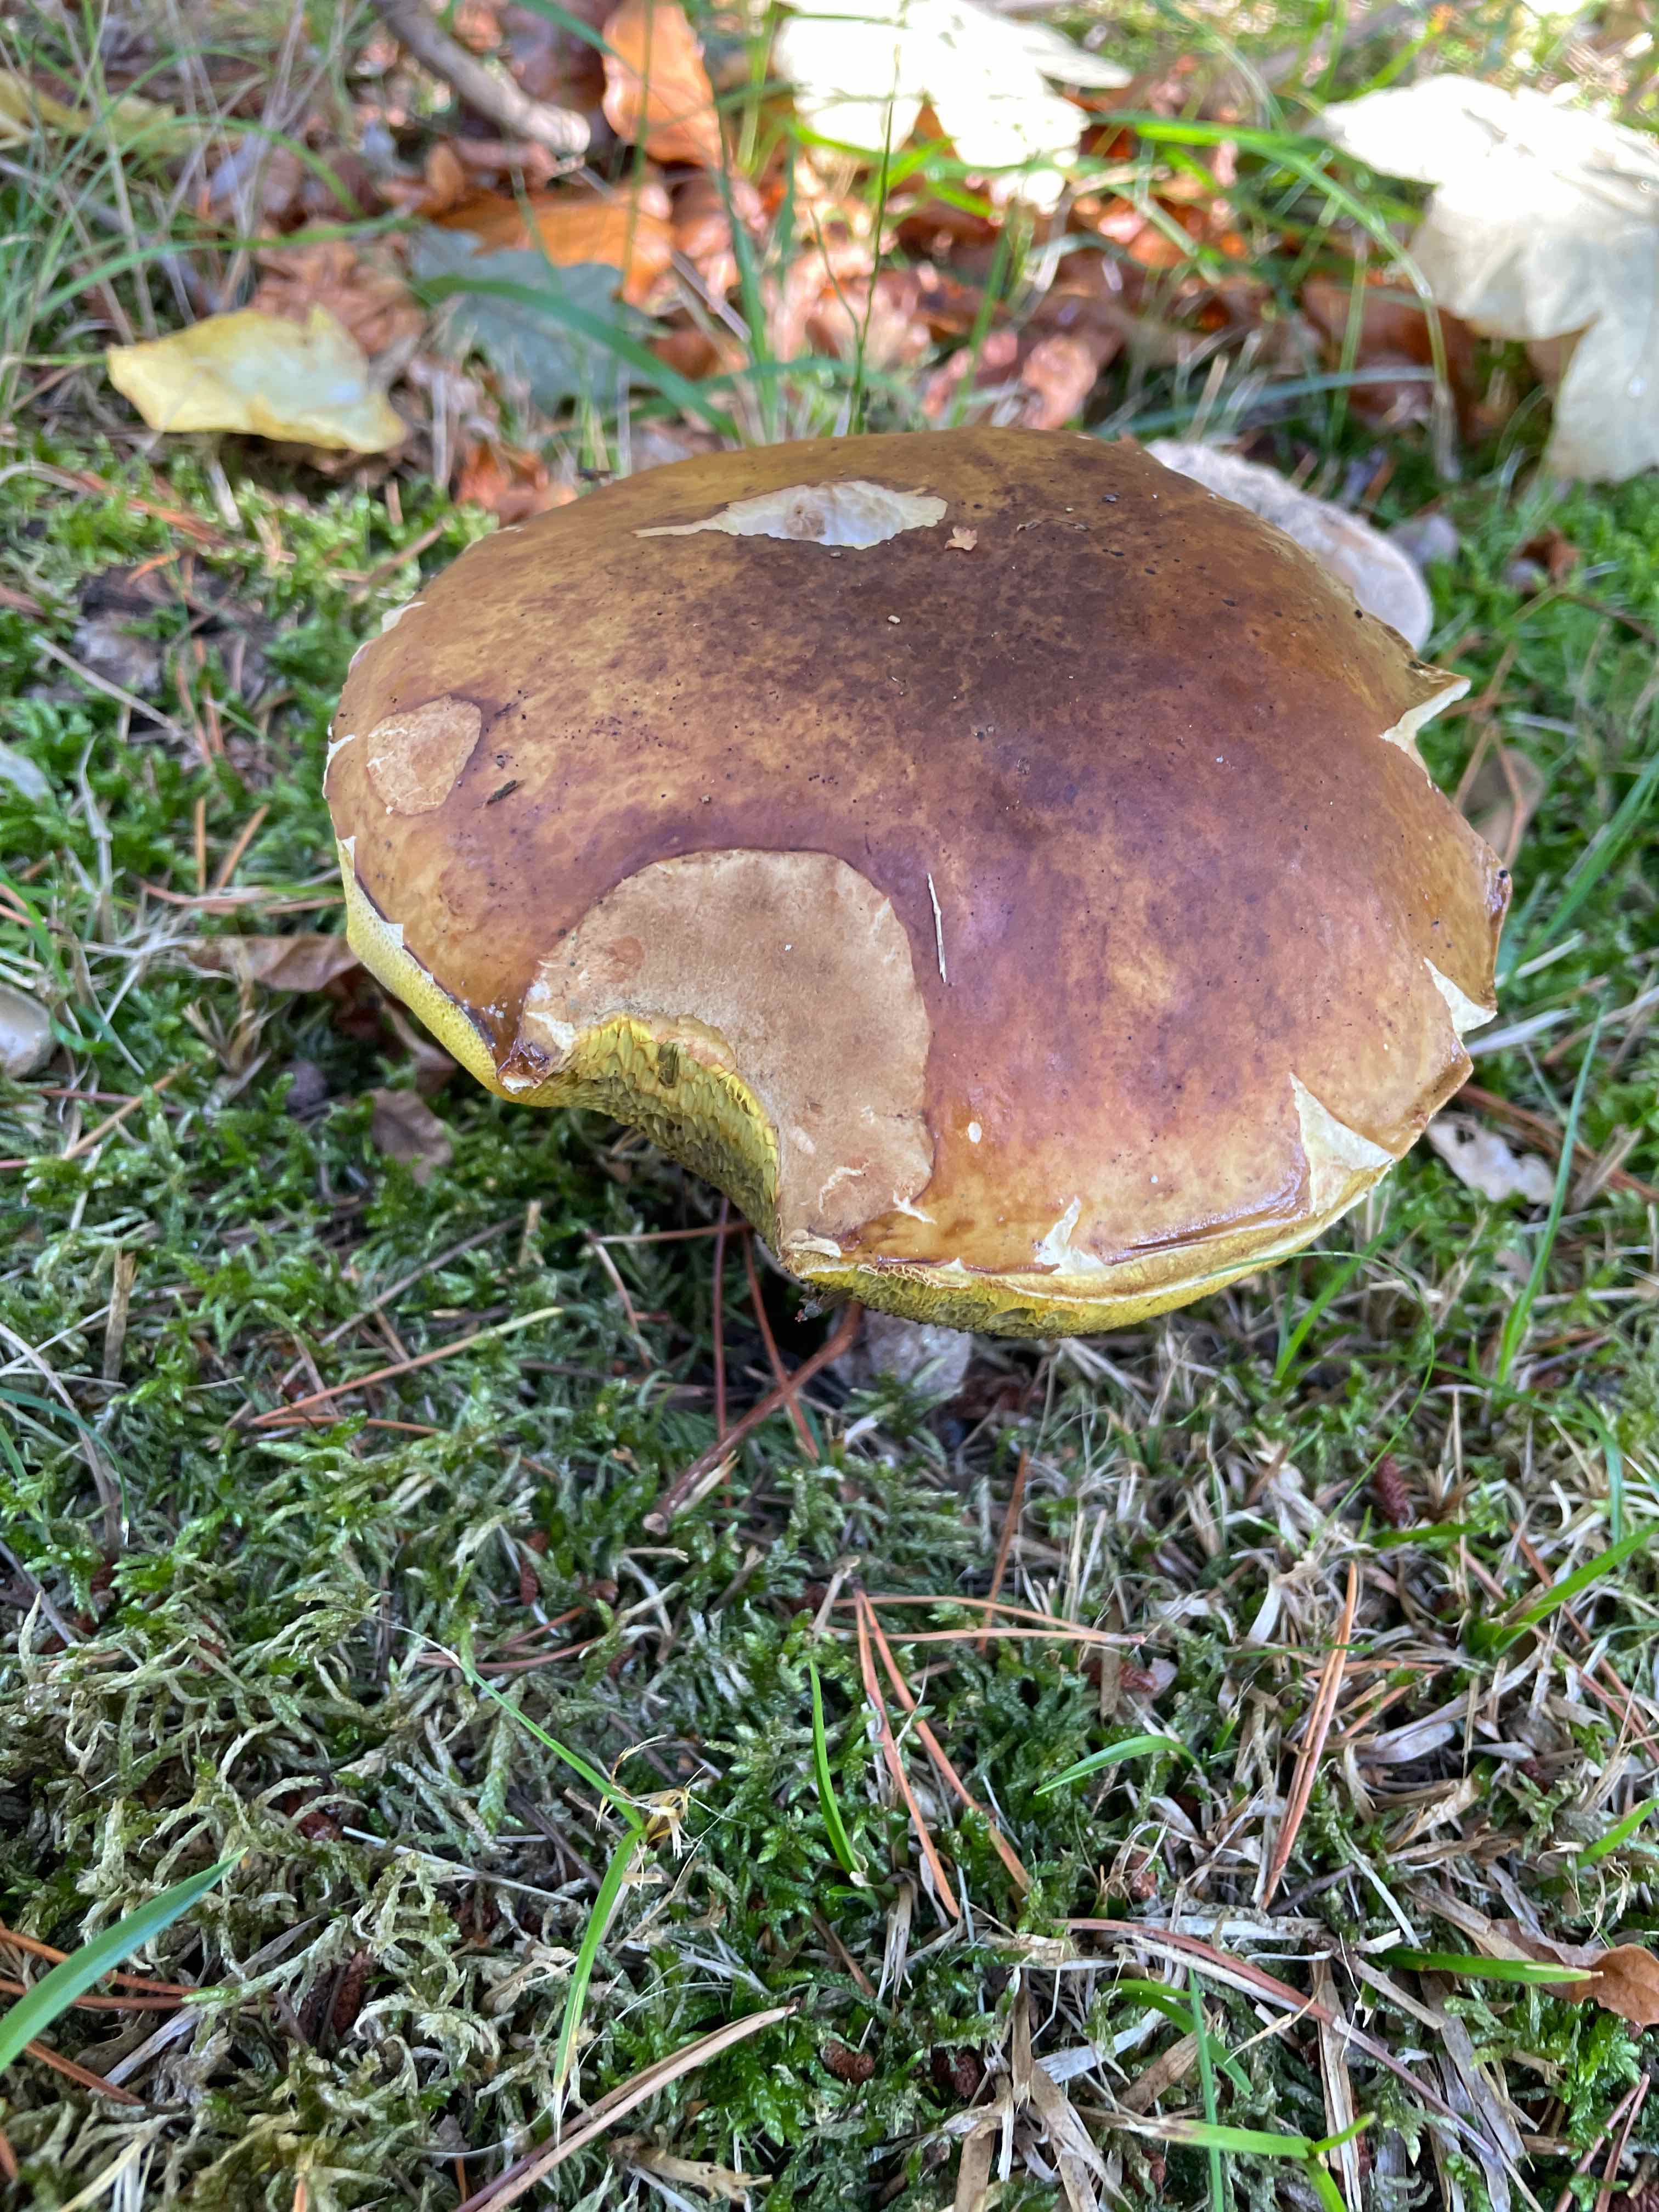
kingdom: Fungi
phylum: Basidiomycota
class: Agaricomycetes
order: Boletales
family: Boletaceae
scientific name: Boletaceae
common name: rørhatfamilien
